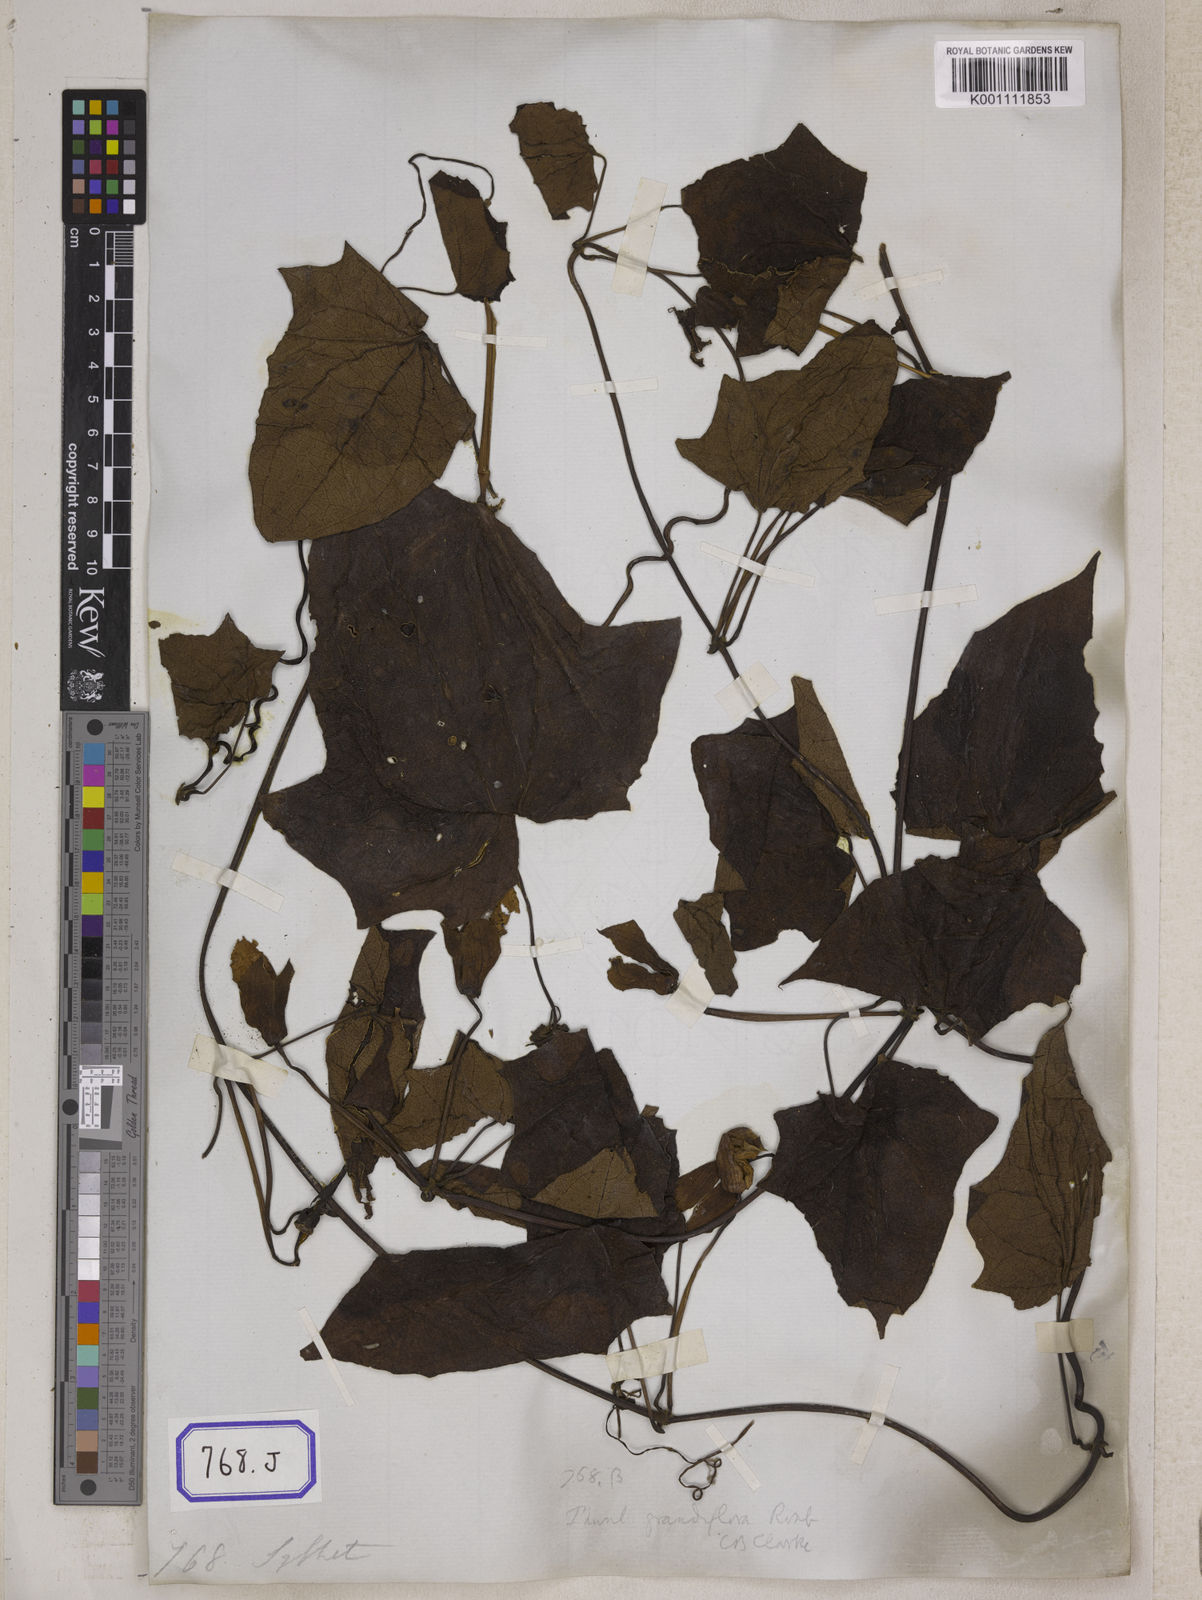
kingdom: Plantae
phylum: Tracheophyta
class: Magnoliopsida
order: Lamiales
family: Acanthaceae
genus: Thunbergia
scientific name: Thunbergia grandiflora
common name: Bengal trumpet
